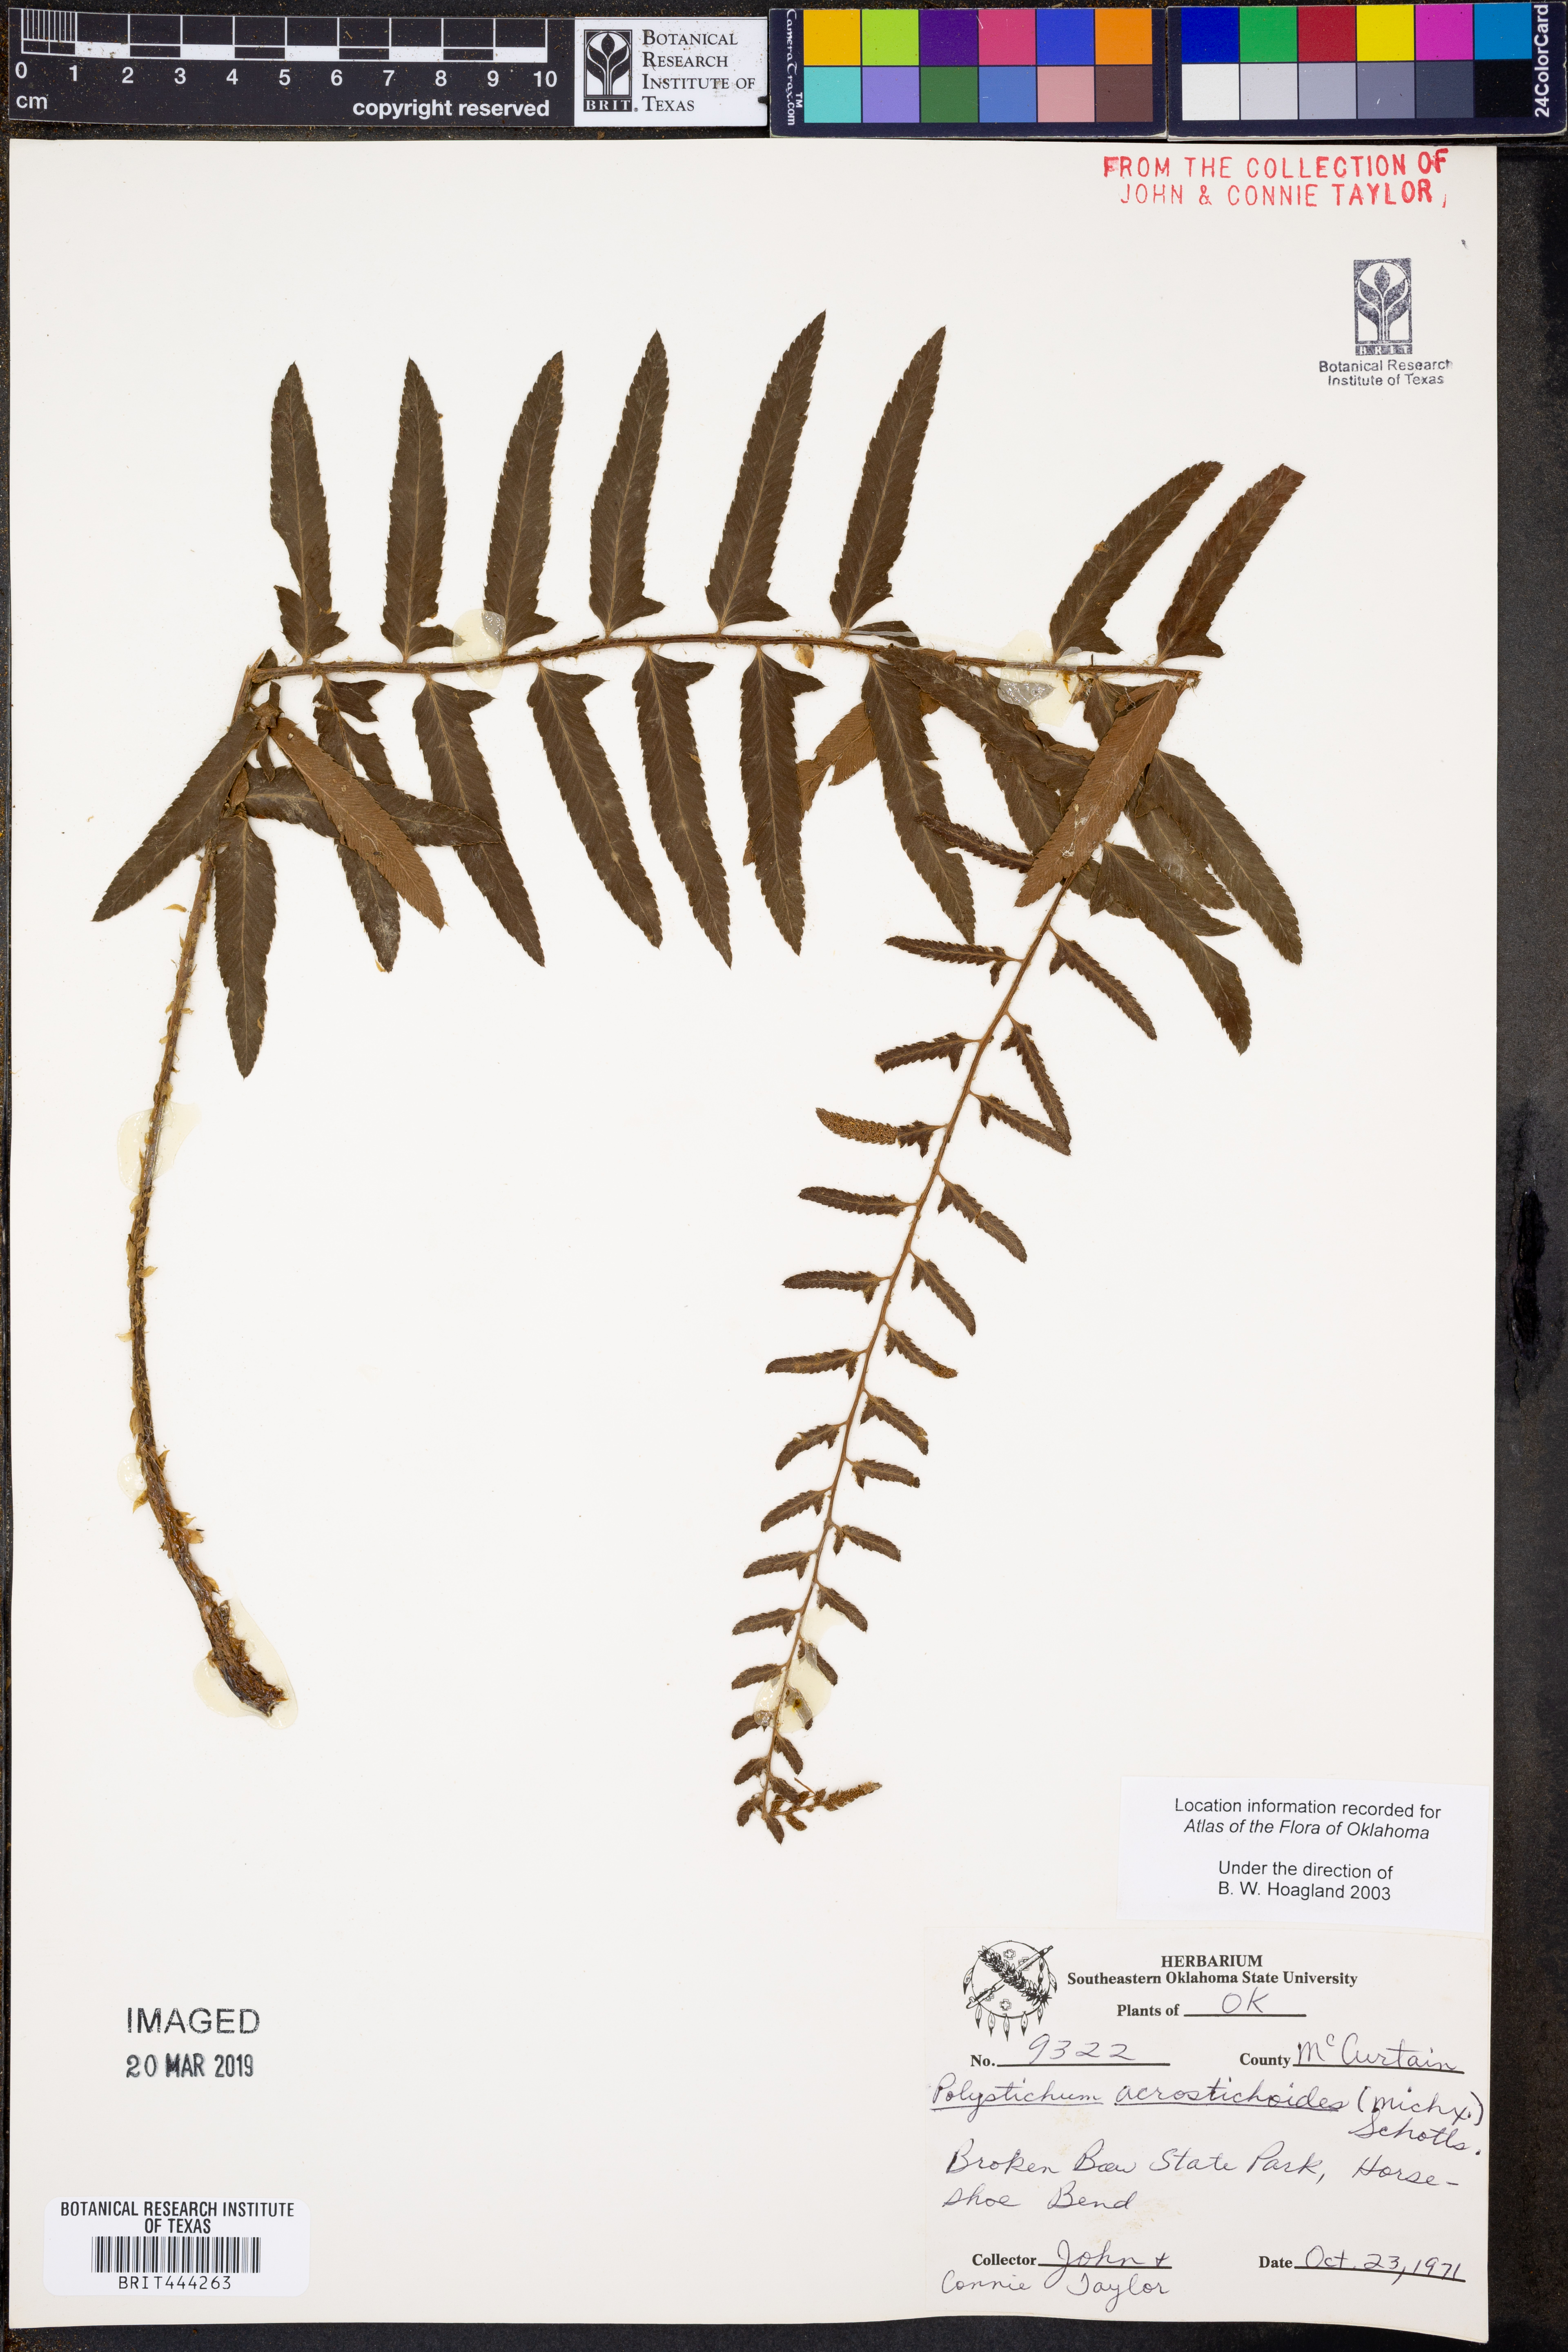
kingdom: Plantae
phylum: Tracheophyta
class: Polypodiopsida
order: Polypodiales
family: Dryopteridaceae
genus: Polystichum
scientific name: Polystichum acrostichoides
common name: Christmas fern
